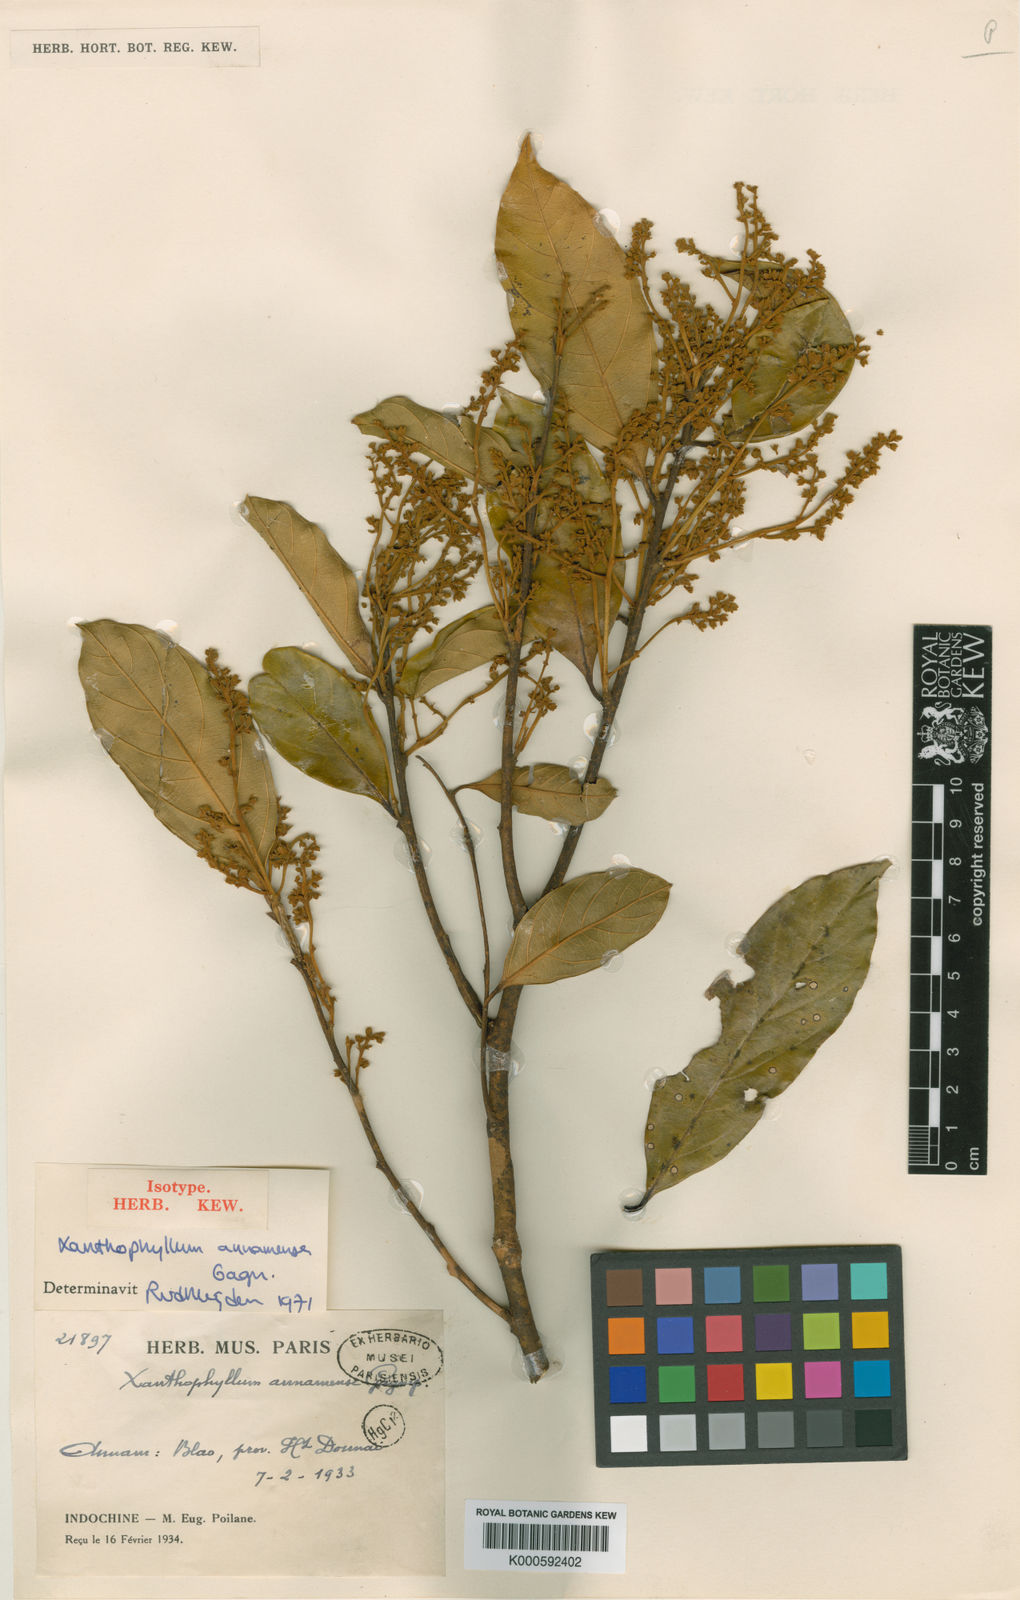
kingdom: Plantae
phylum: Tracheophyta
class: Magnoliopsida
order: Fabales
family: Polygalaceae
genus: Xanthophyllum
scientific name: Xanthophyllum annamense
